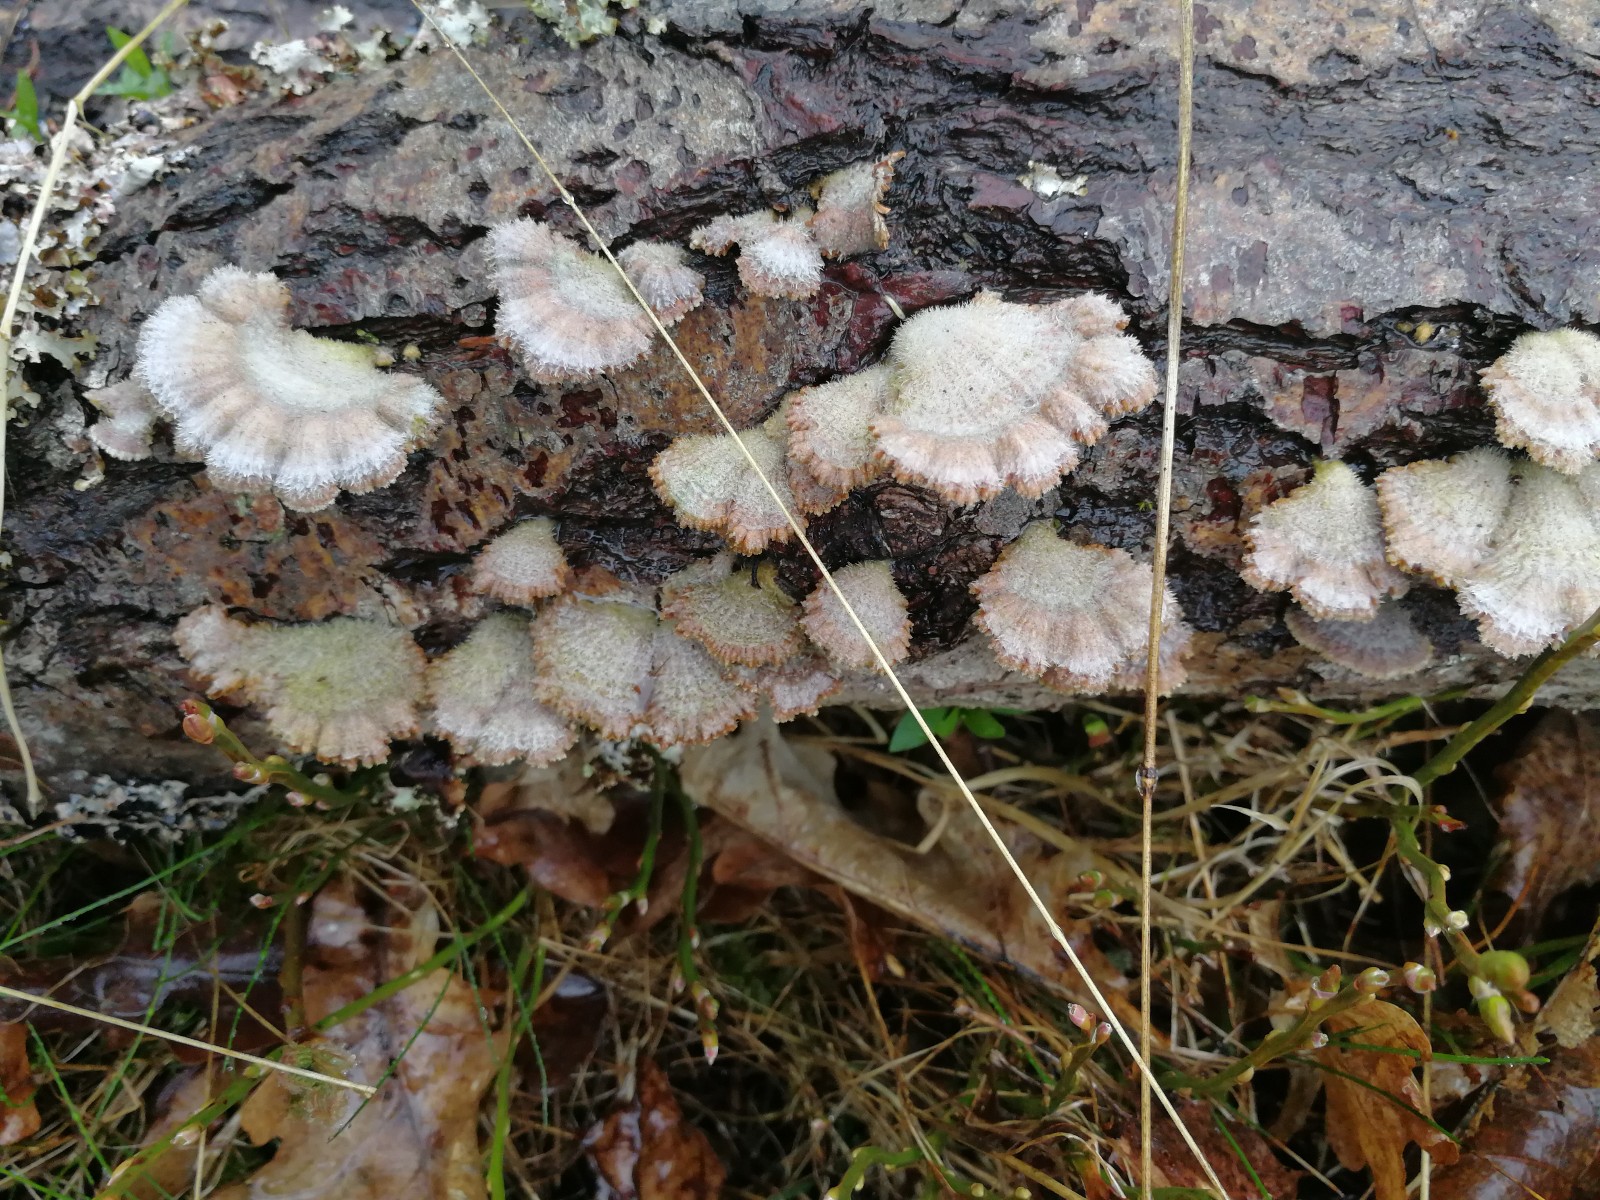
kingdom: Fungi
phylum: Basidiomycota
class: Agaricomycetes
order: Agaricales
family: Schizophyllaceae
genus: Schizophyllum
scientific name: Schizophyllum commune
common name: kløvblad
